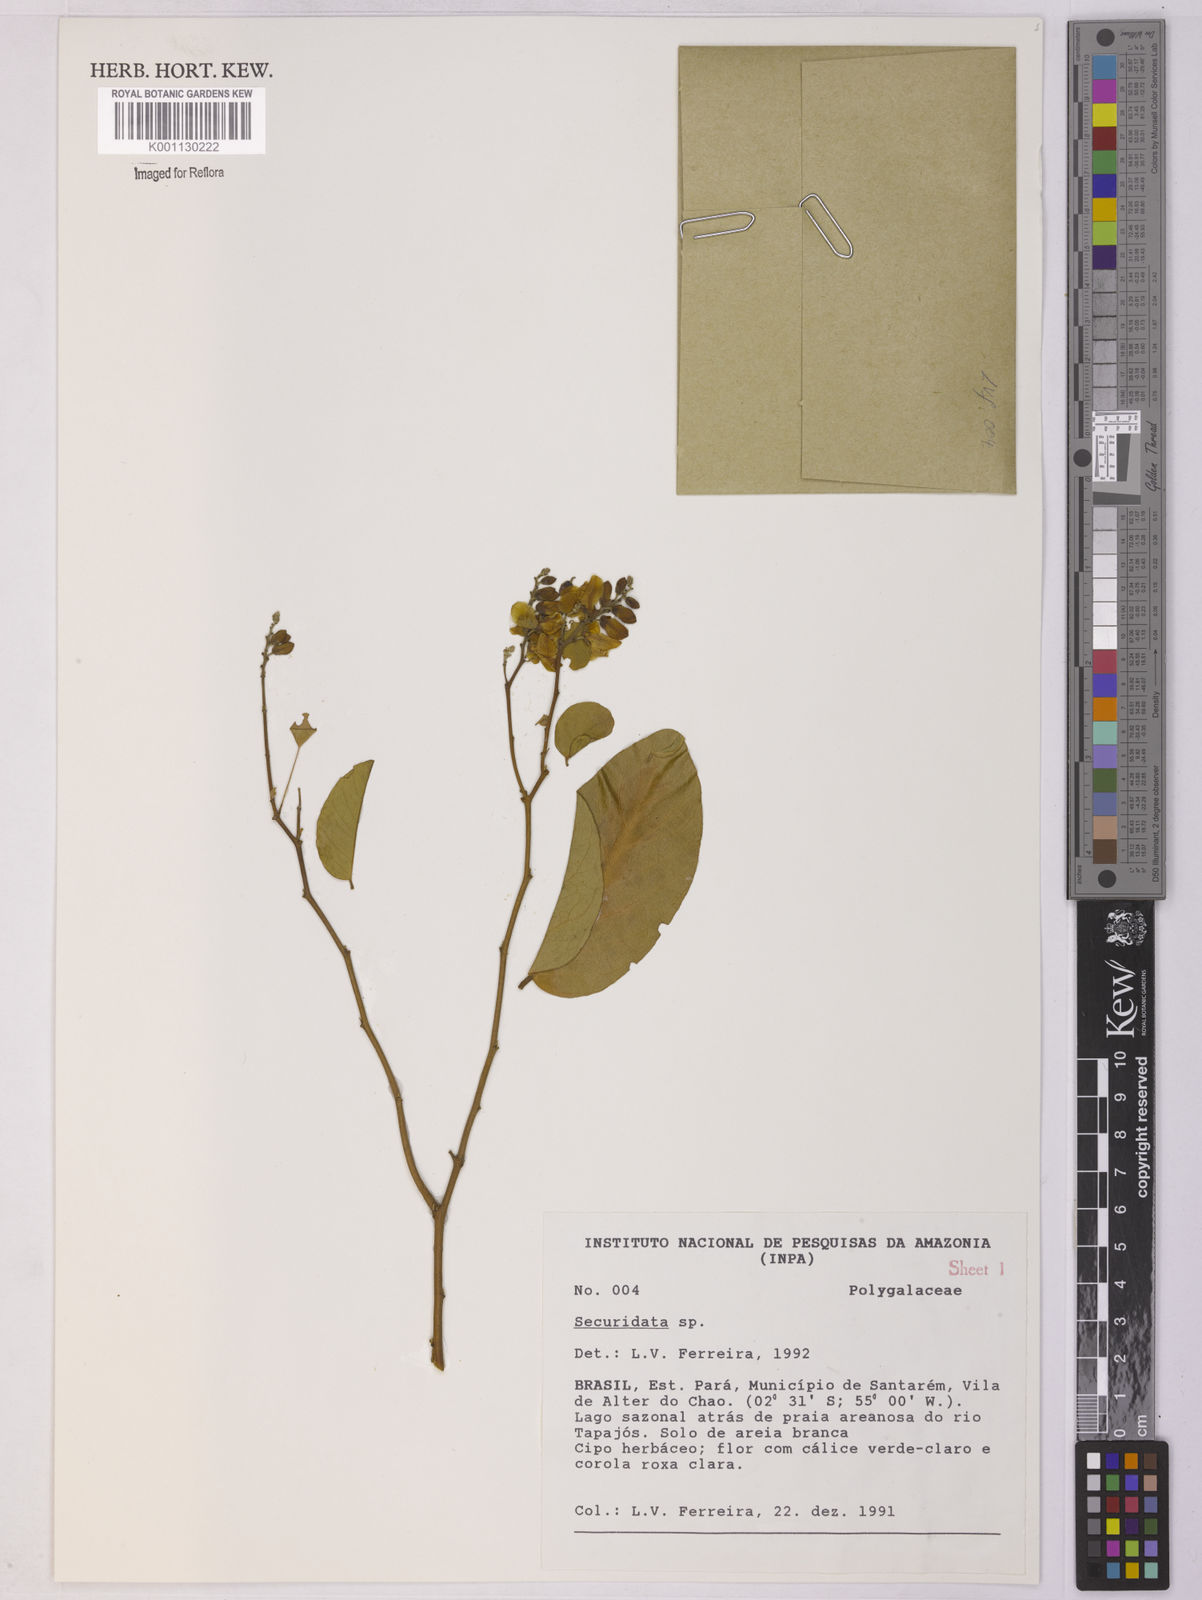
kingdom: Plantae
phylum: Tracheophyta
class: Magnoliopsida
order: Fabales
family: Polygalaceae
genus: Securidaca
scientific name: Securidaca
